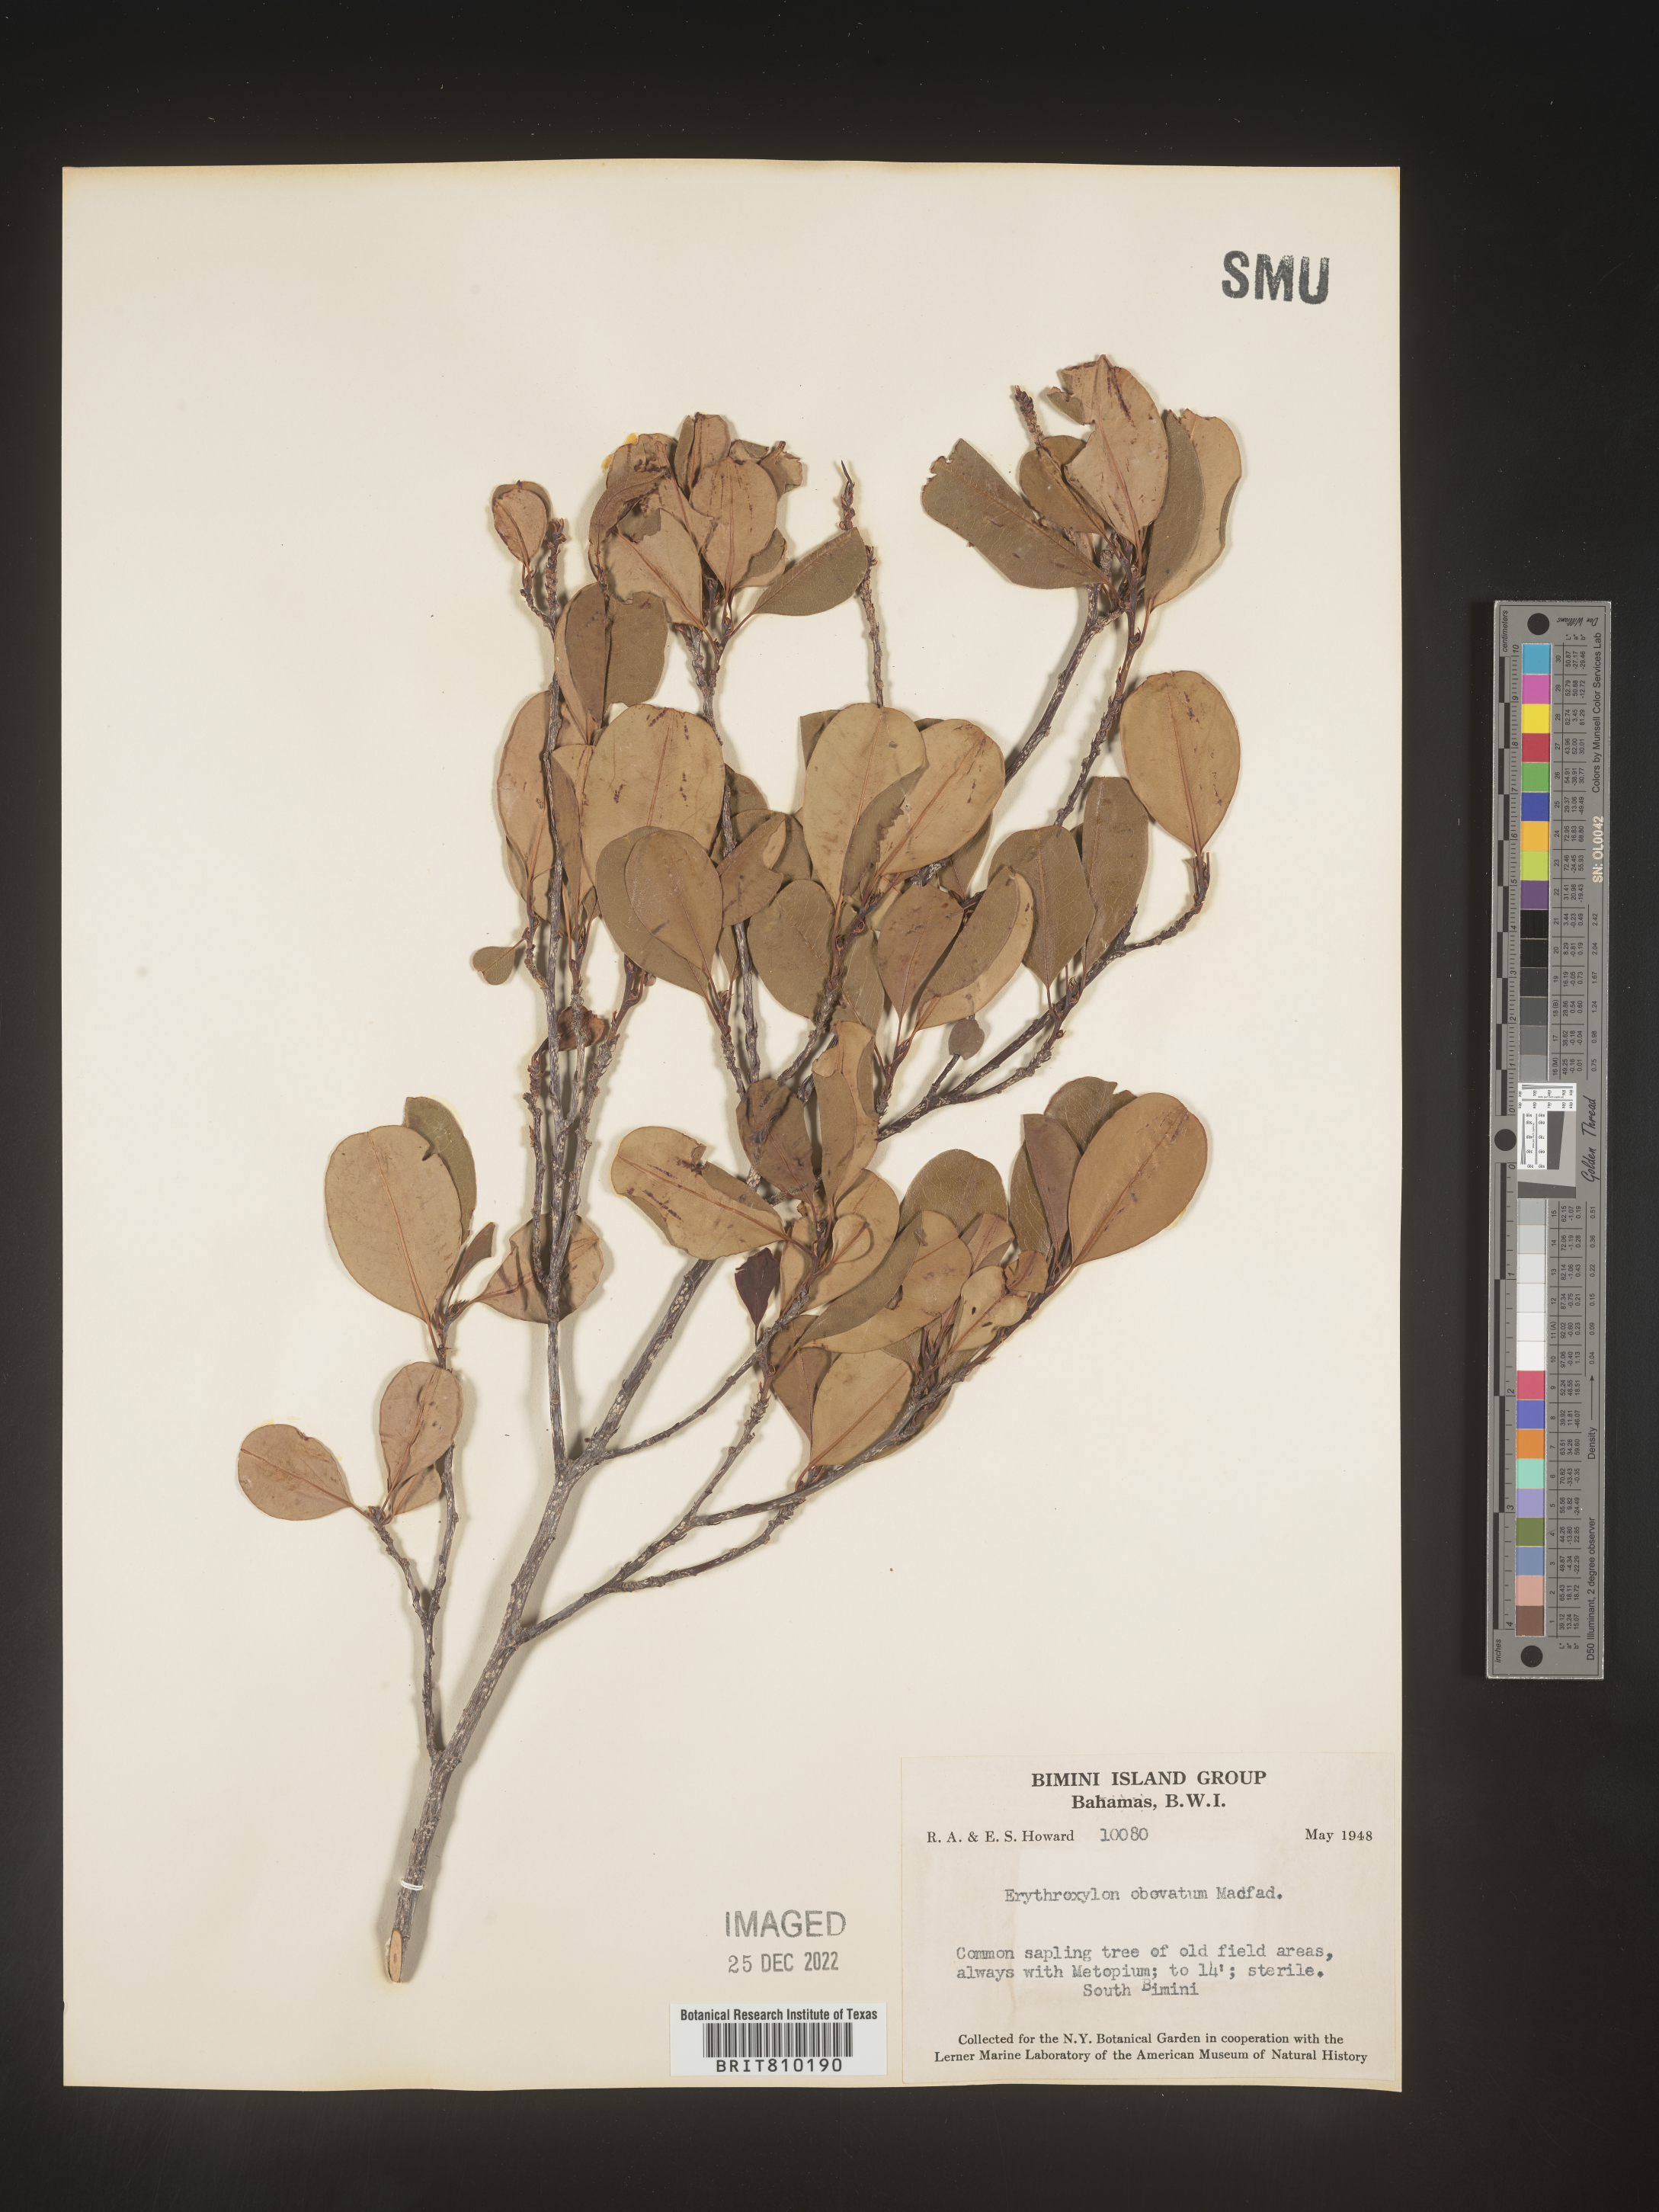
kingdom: Plantae
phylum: Tracheophyta
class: Magnoliopsida
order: Malpighiales
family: Erythroxylaceae
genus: Erythroxylum
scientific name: Erythroxylum
